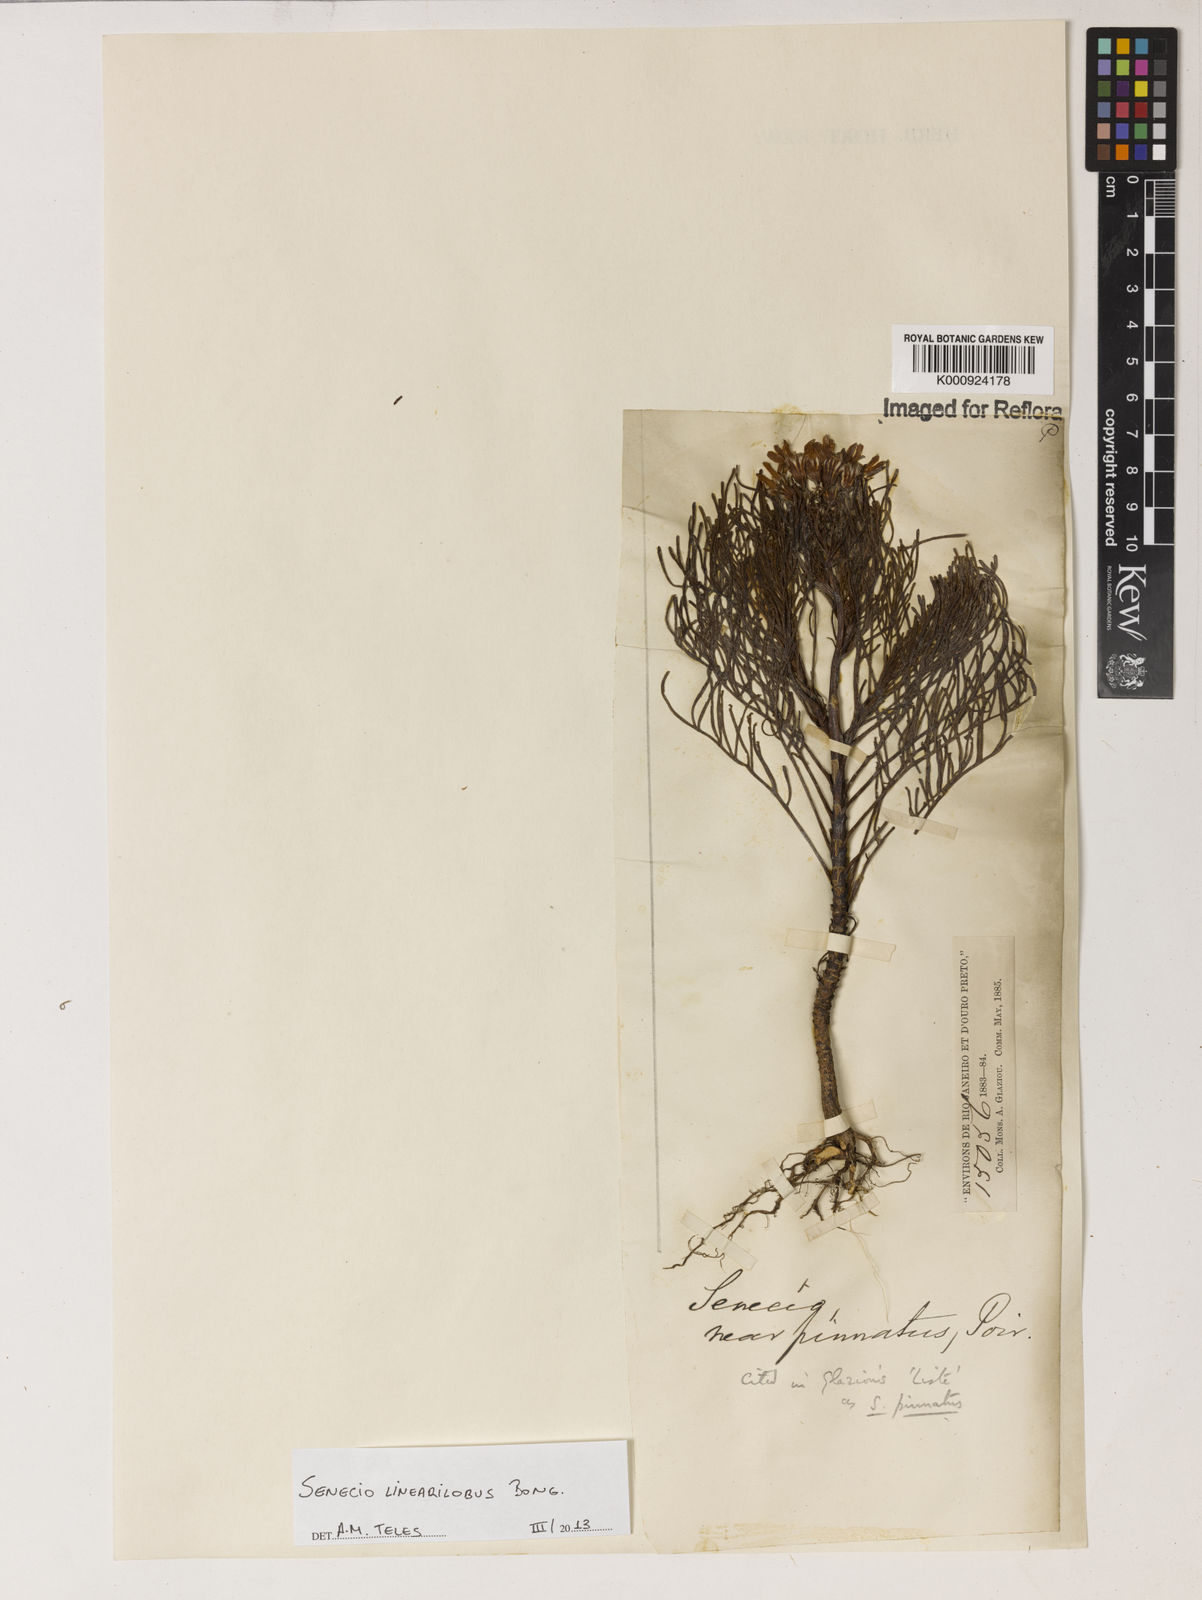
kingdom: Plantae
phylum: Tracheophyta
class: Magnoliopsida
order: Asterales
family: Asteraceae
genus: Senecio
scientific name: Senecio linearilobus
